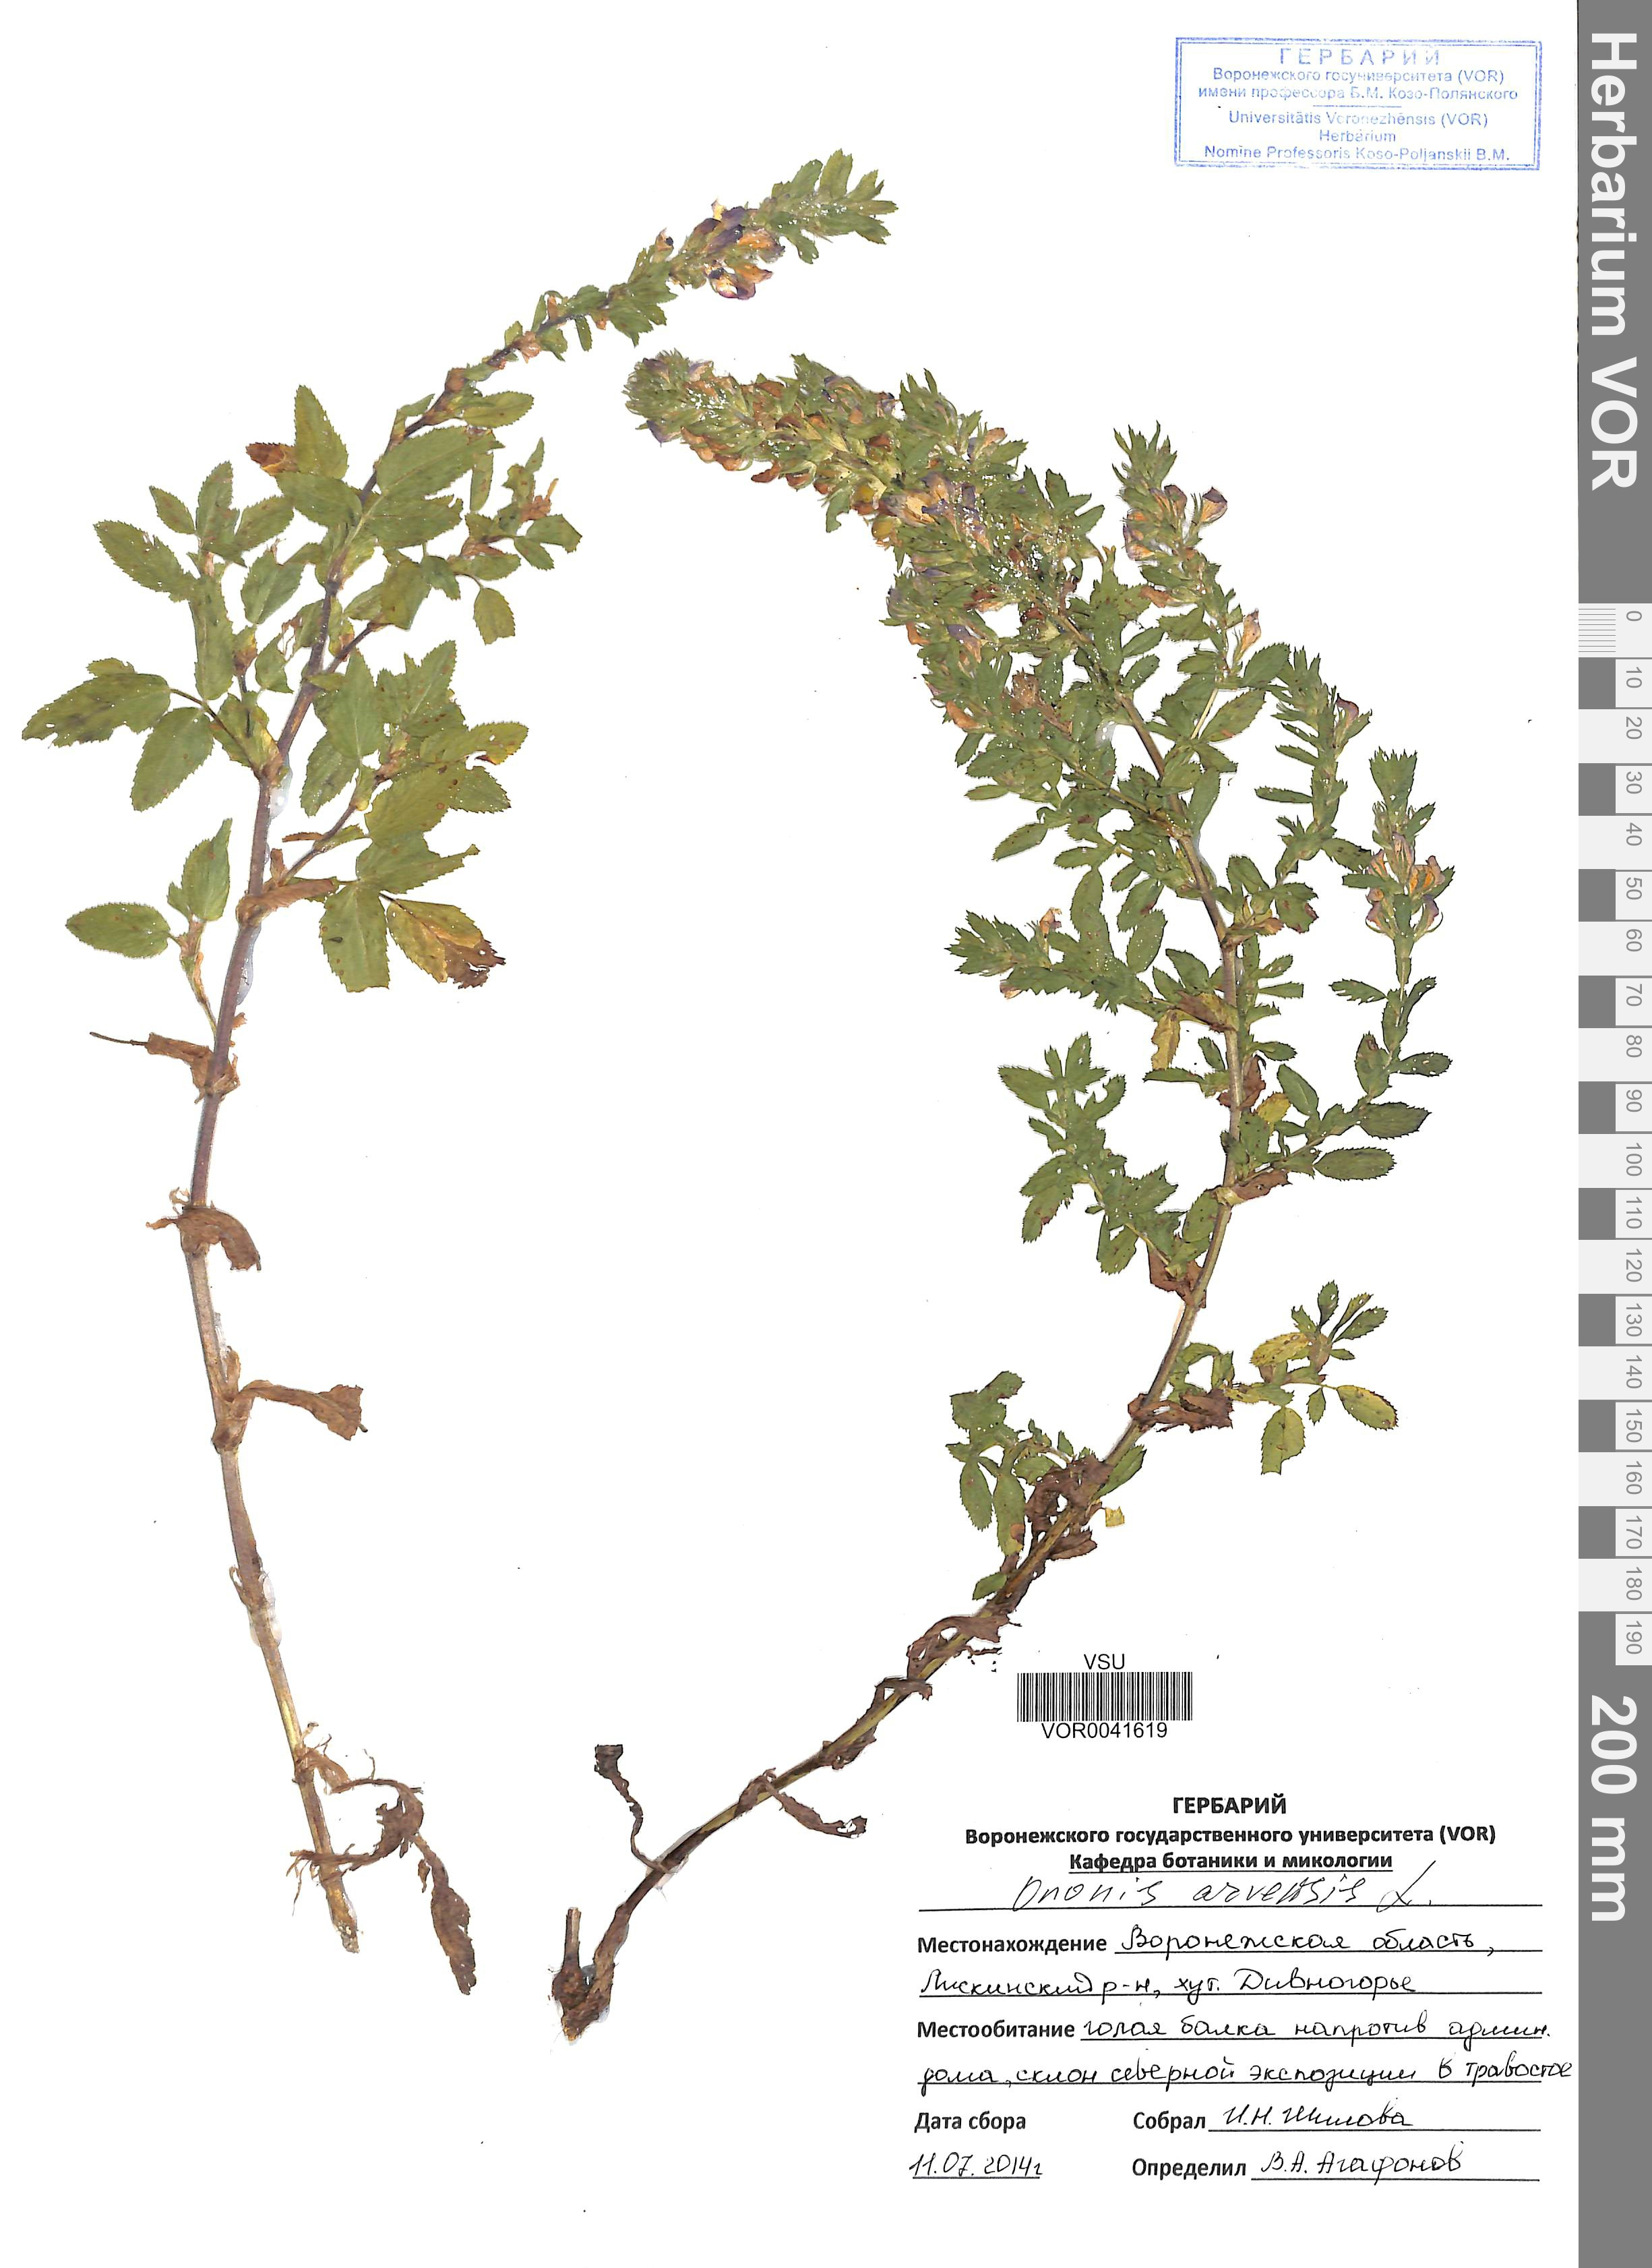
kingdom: Plantae
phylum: Tracheophyta
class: Magnoliopsida
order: Fabales
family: Fabaceae
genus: Ononis
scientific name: Ononis arvensis
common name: Field restharrow
